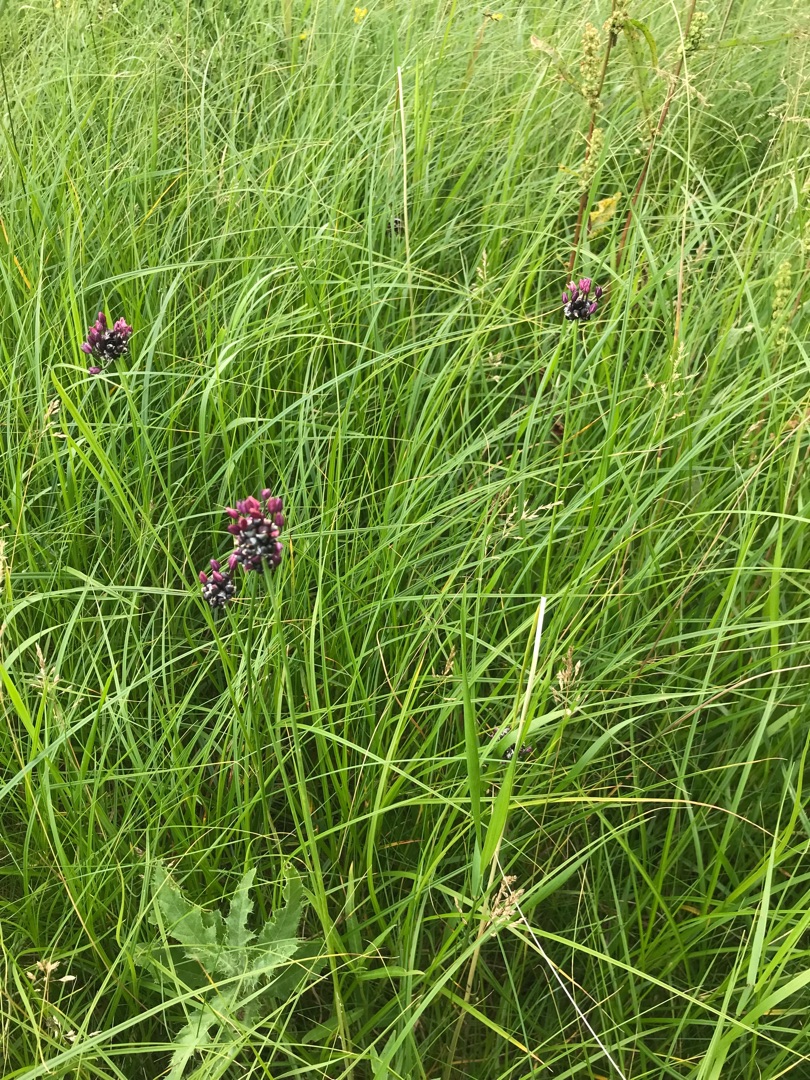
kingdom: Plantae
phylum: Tracheophyta
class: Liliopsida
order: Asparagales
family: Amaryllidaceae
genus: Allium
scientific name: Allium scorodoprasum
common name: Skov-løg
